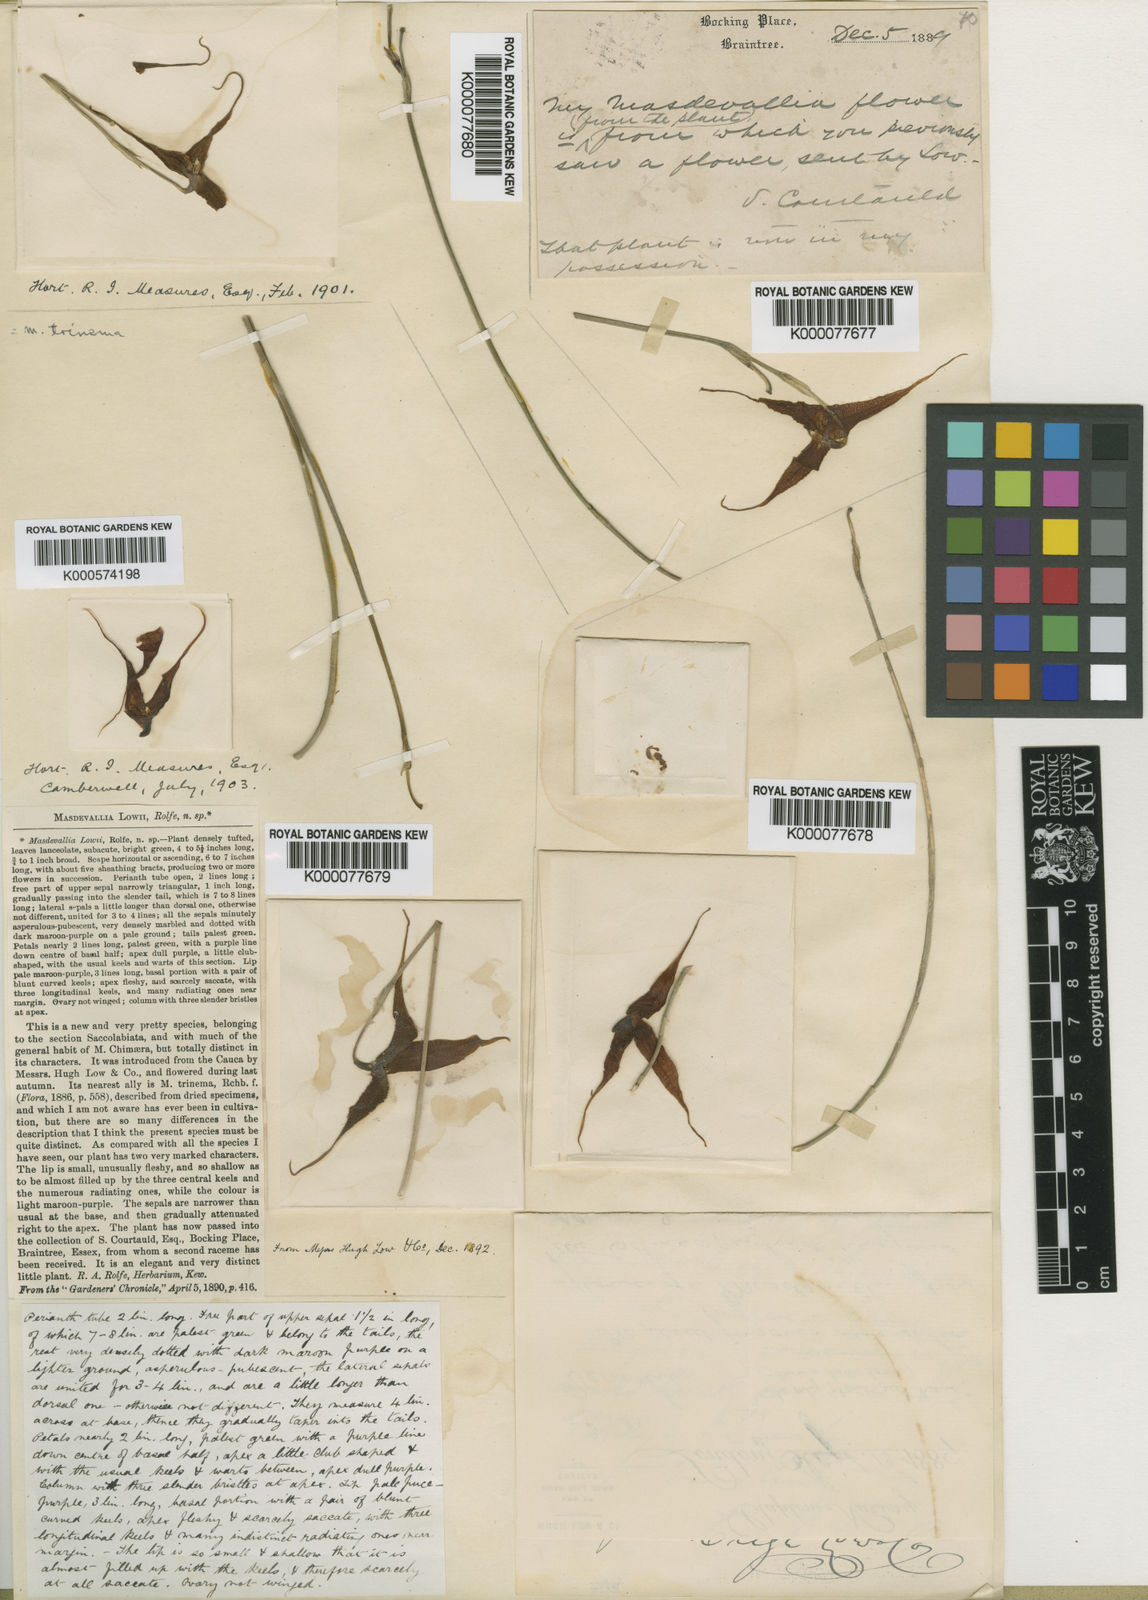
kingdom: Plantae
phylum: Tracheophyta
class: Liliopsida
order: Asparagales
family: Orchidaceae
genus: Dracula
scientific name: Dracula
